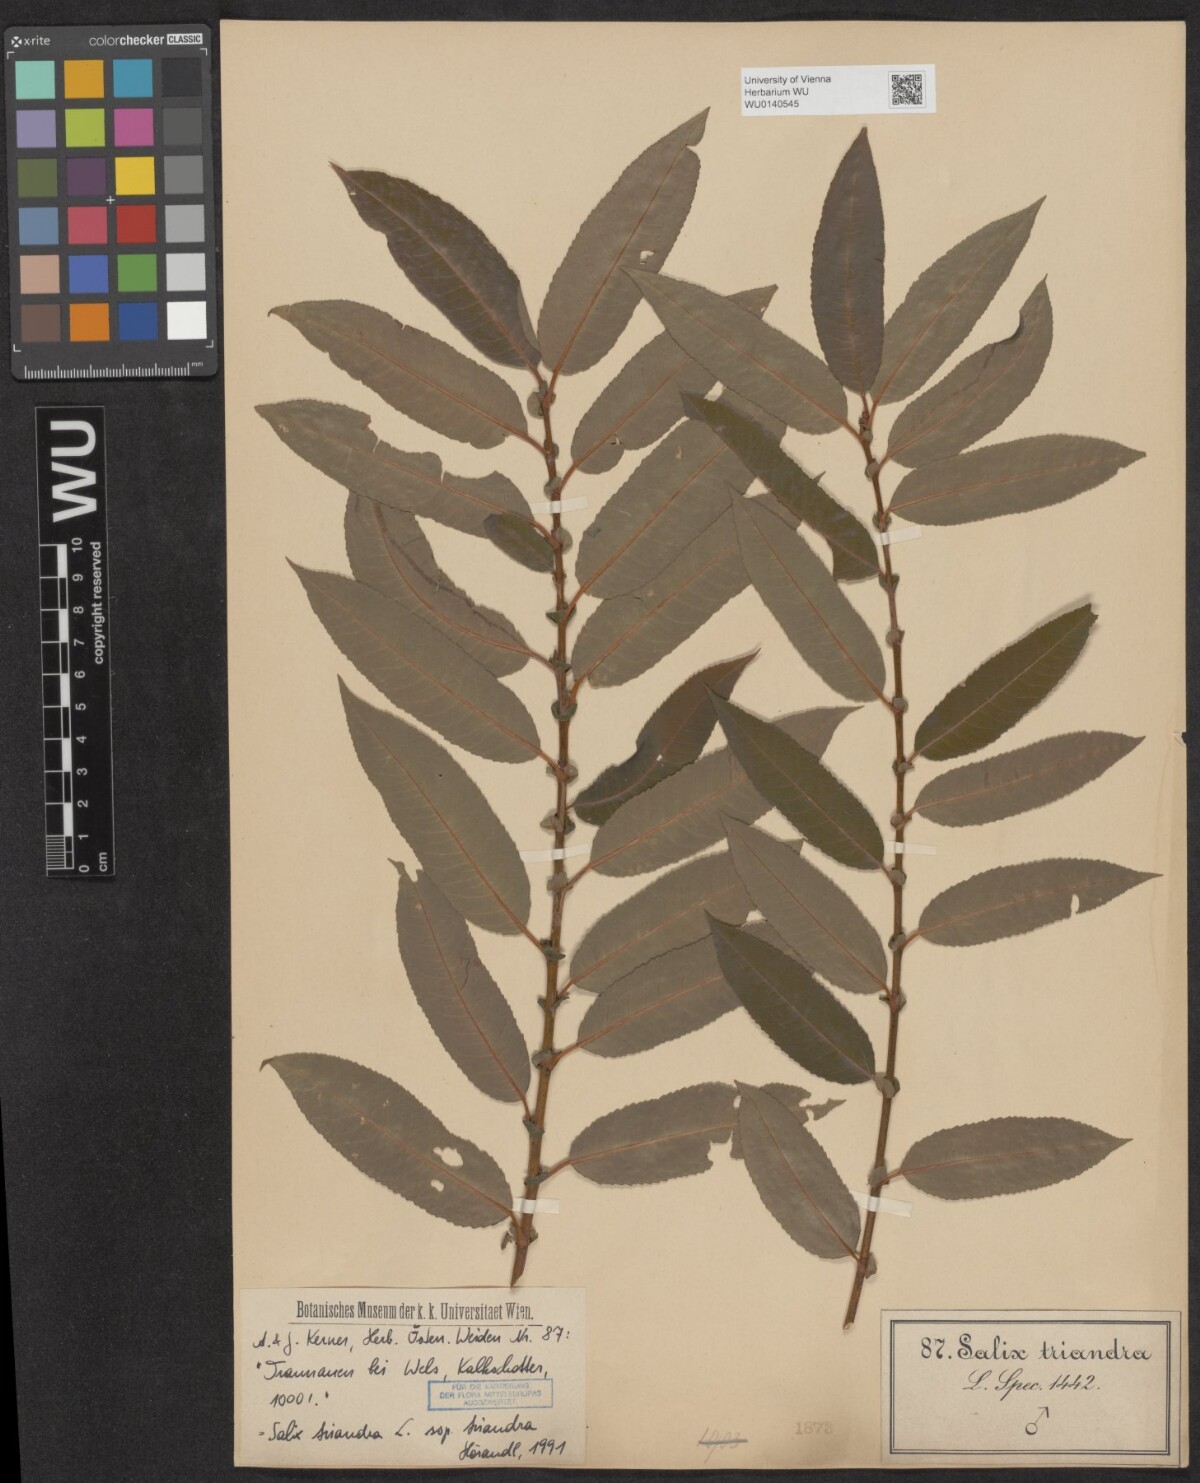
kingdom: Plantae
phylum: Tracheophyta
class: Magnoliopsida
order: Malpighiales
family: Salicaceae
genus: Salix
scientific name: Salix triandra
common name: Almond willow
